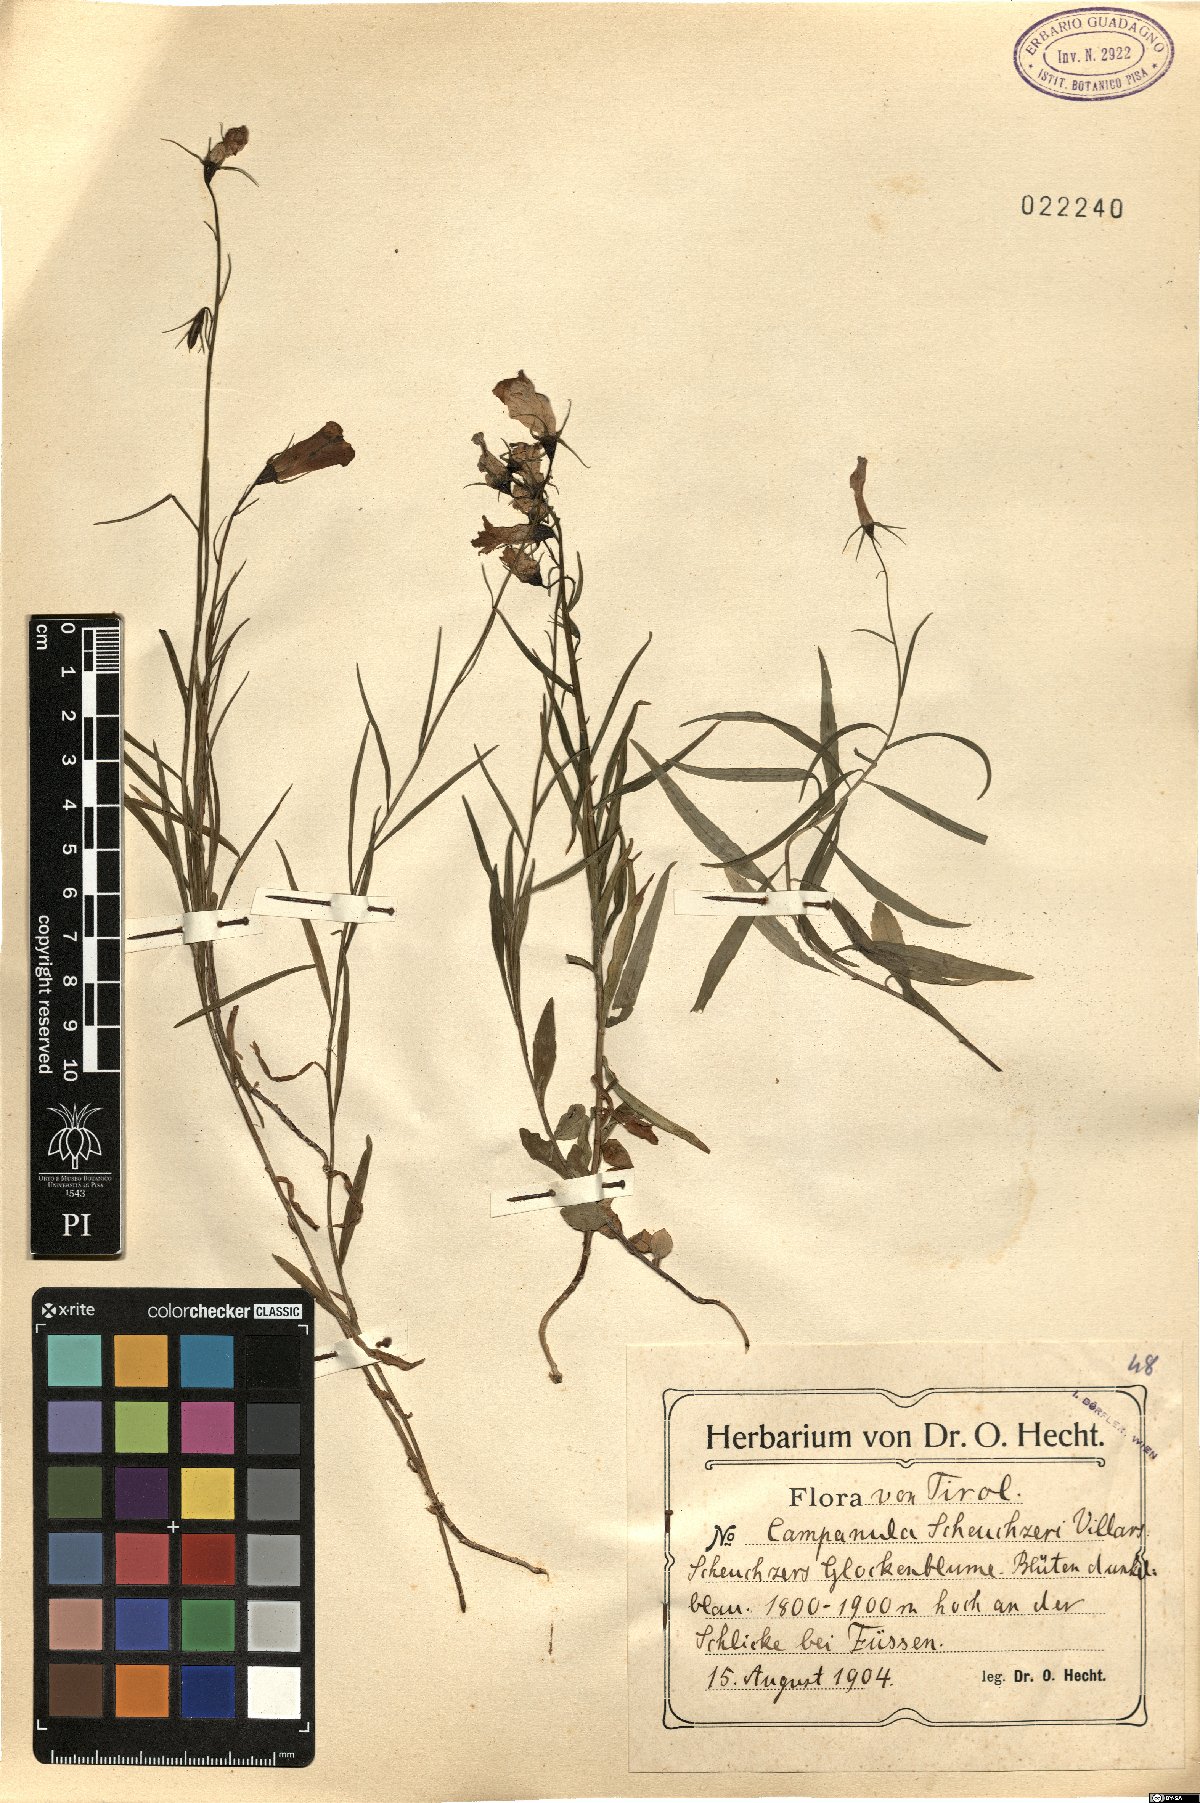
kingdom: Plantae
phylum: Tracheophyta
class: Magnoliopsida
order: Asterales
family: Campanulaceae
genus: Campanula
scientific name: Campanula scheuchzeri
